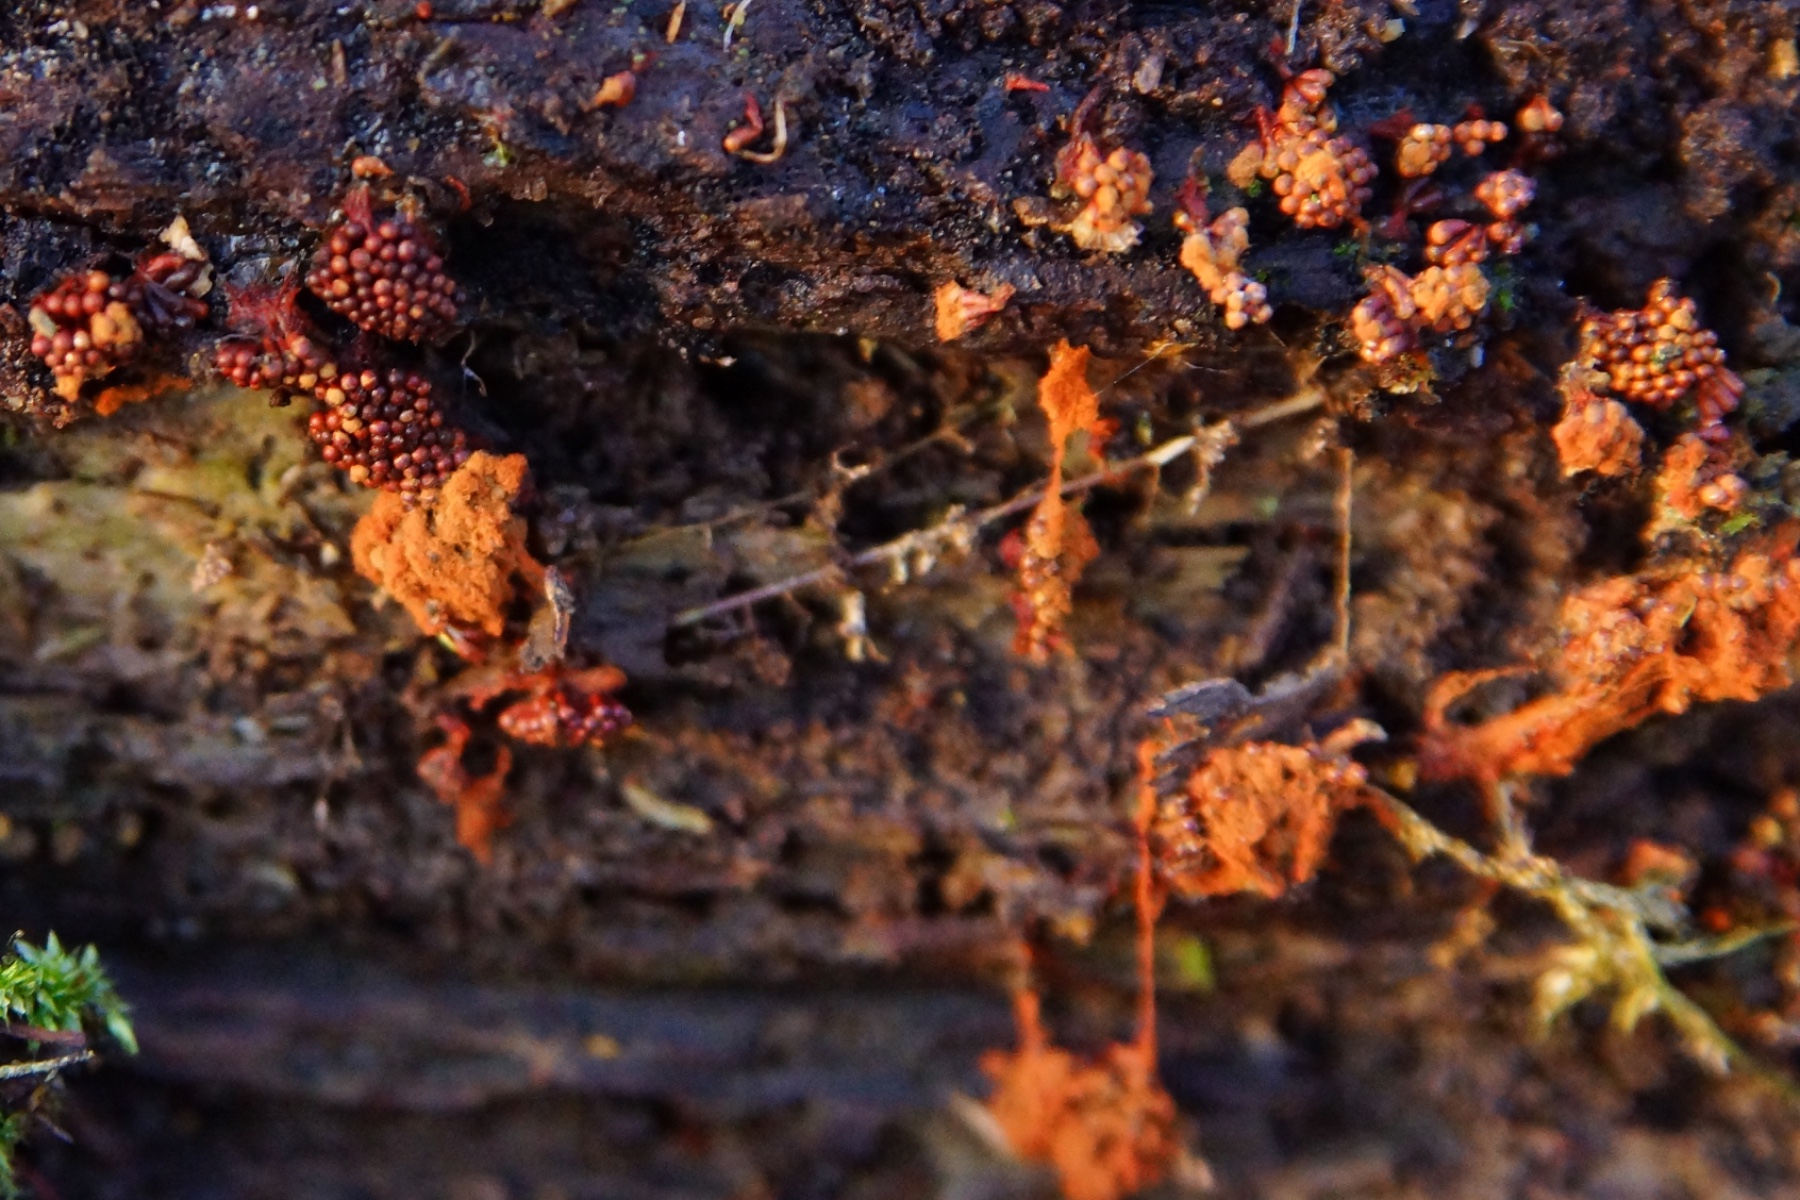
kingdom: Protozoa
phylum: Mycetozoa
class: Myxomycetes
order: Trichiales
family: Trichiaceae
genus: Metatrichia
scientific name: Metatrichia vesparia
